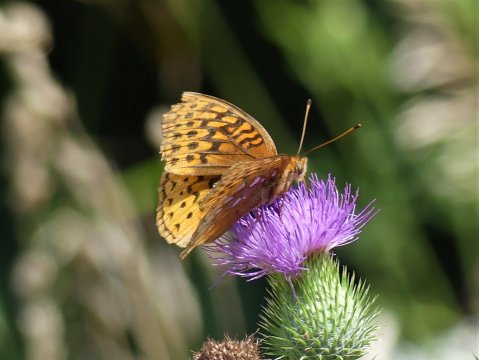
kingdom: Animalia
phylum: Arthropoda
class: Insecta
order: Lepidoptera
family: Nymphalidae
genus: Speyeria
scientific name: Speyeria cybele
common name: Great Spangled Fritillary
